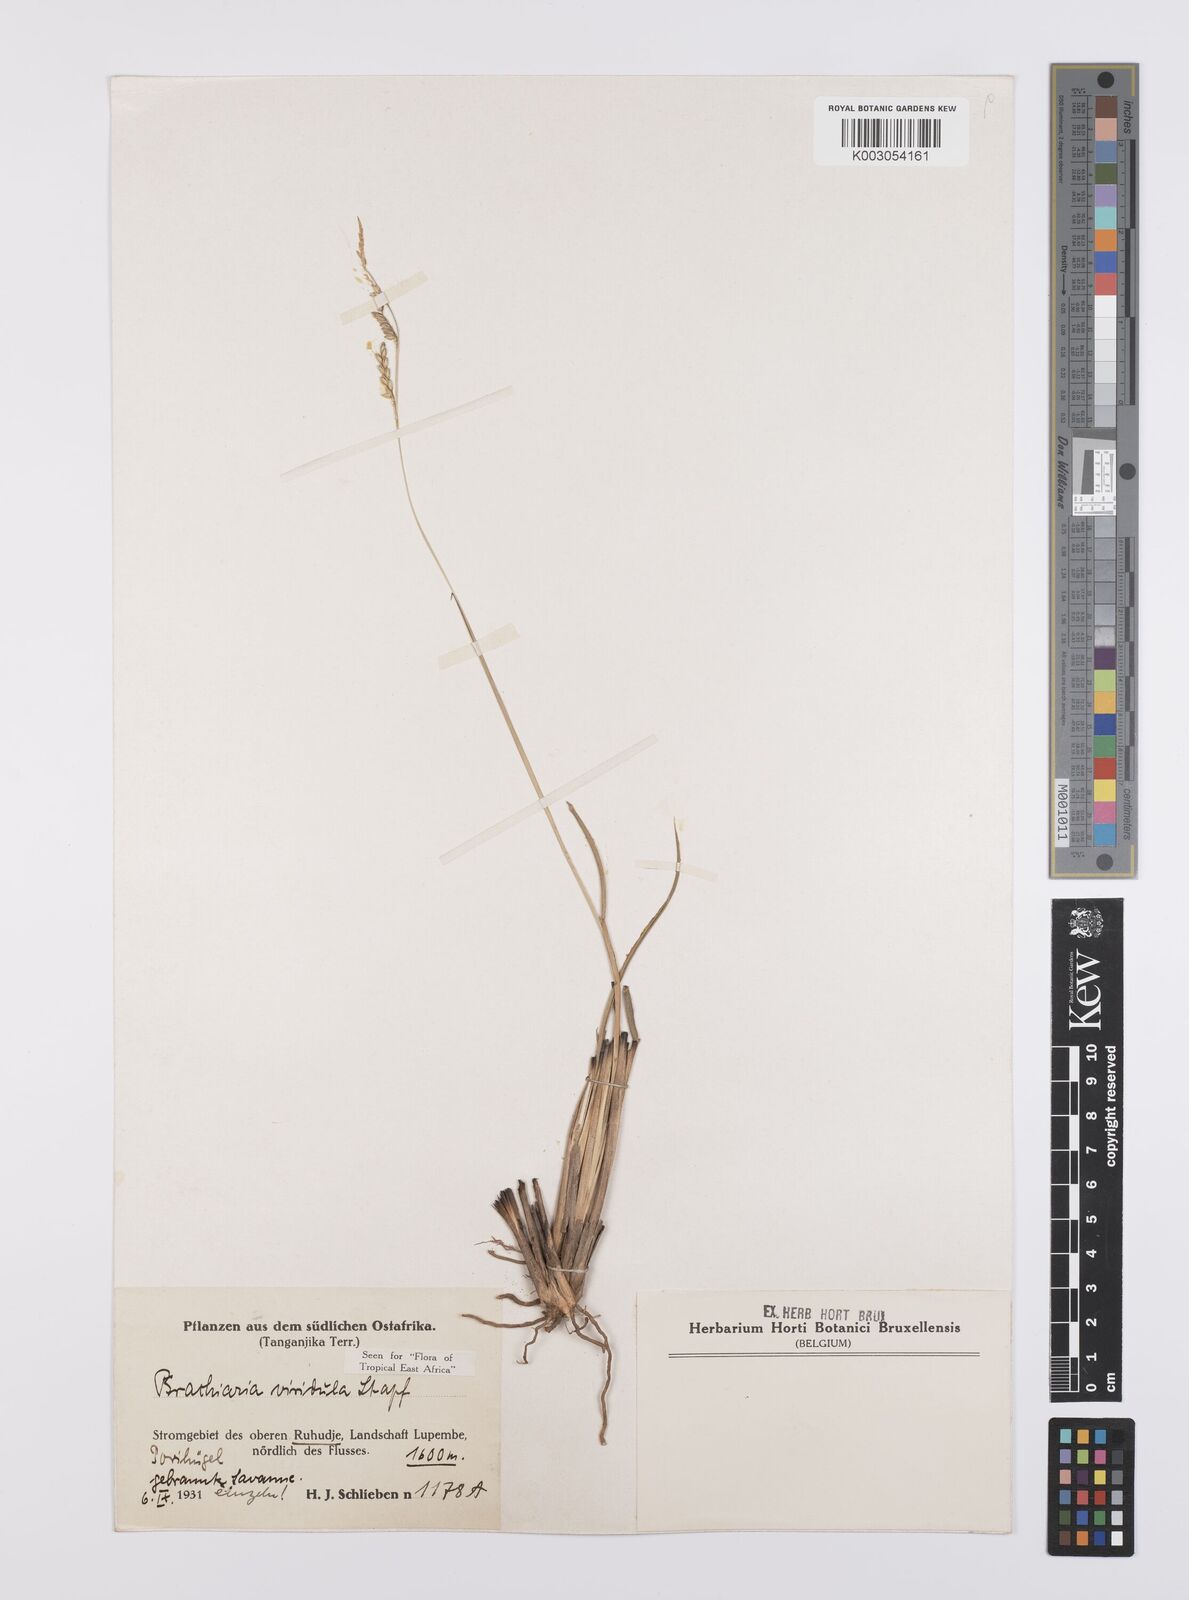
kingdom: Plantae
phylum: Tracheophyta
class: Liliopsida
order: Poales
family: Poaceae
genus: Urochloa
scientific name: Urochloa bovonei
